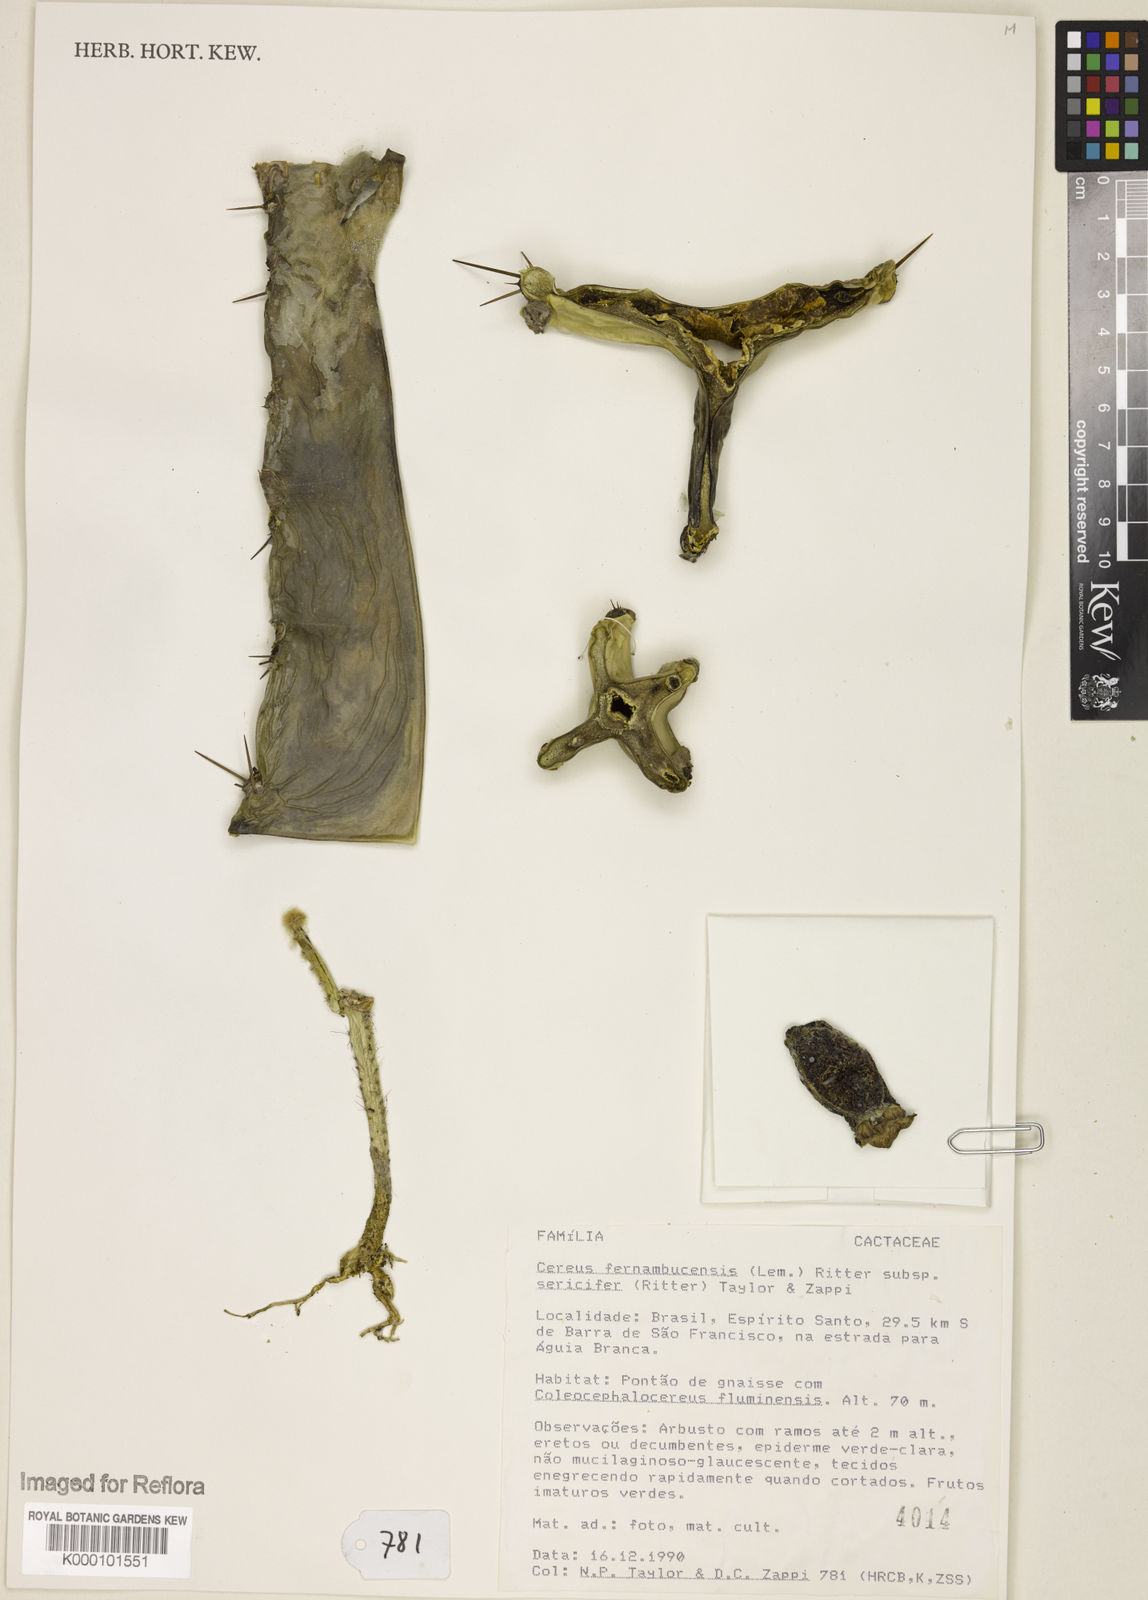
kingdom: Plantae
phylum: Tracheophyta
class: Magnoliopsida
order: Caryophyllales
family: Cactaceae
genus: Cereus
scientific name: Cereus fernambucensis
